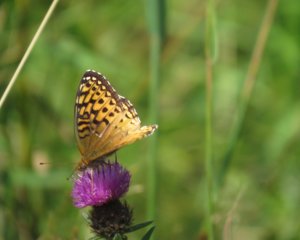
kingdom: Animalia
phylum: Arthropoda
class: Insecta
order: Lepidoptera
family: Nymphalidae
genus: Speyeria
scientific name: Speyeria atlantis
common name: Atlantis Fritillary
